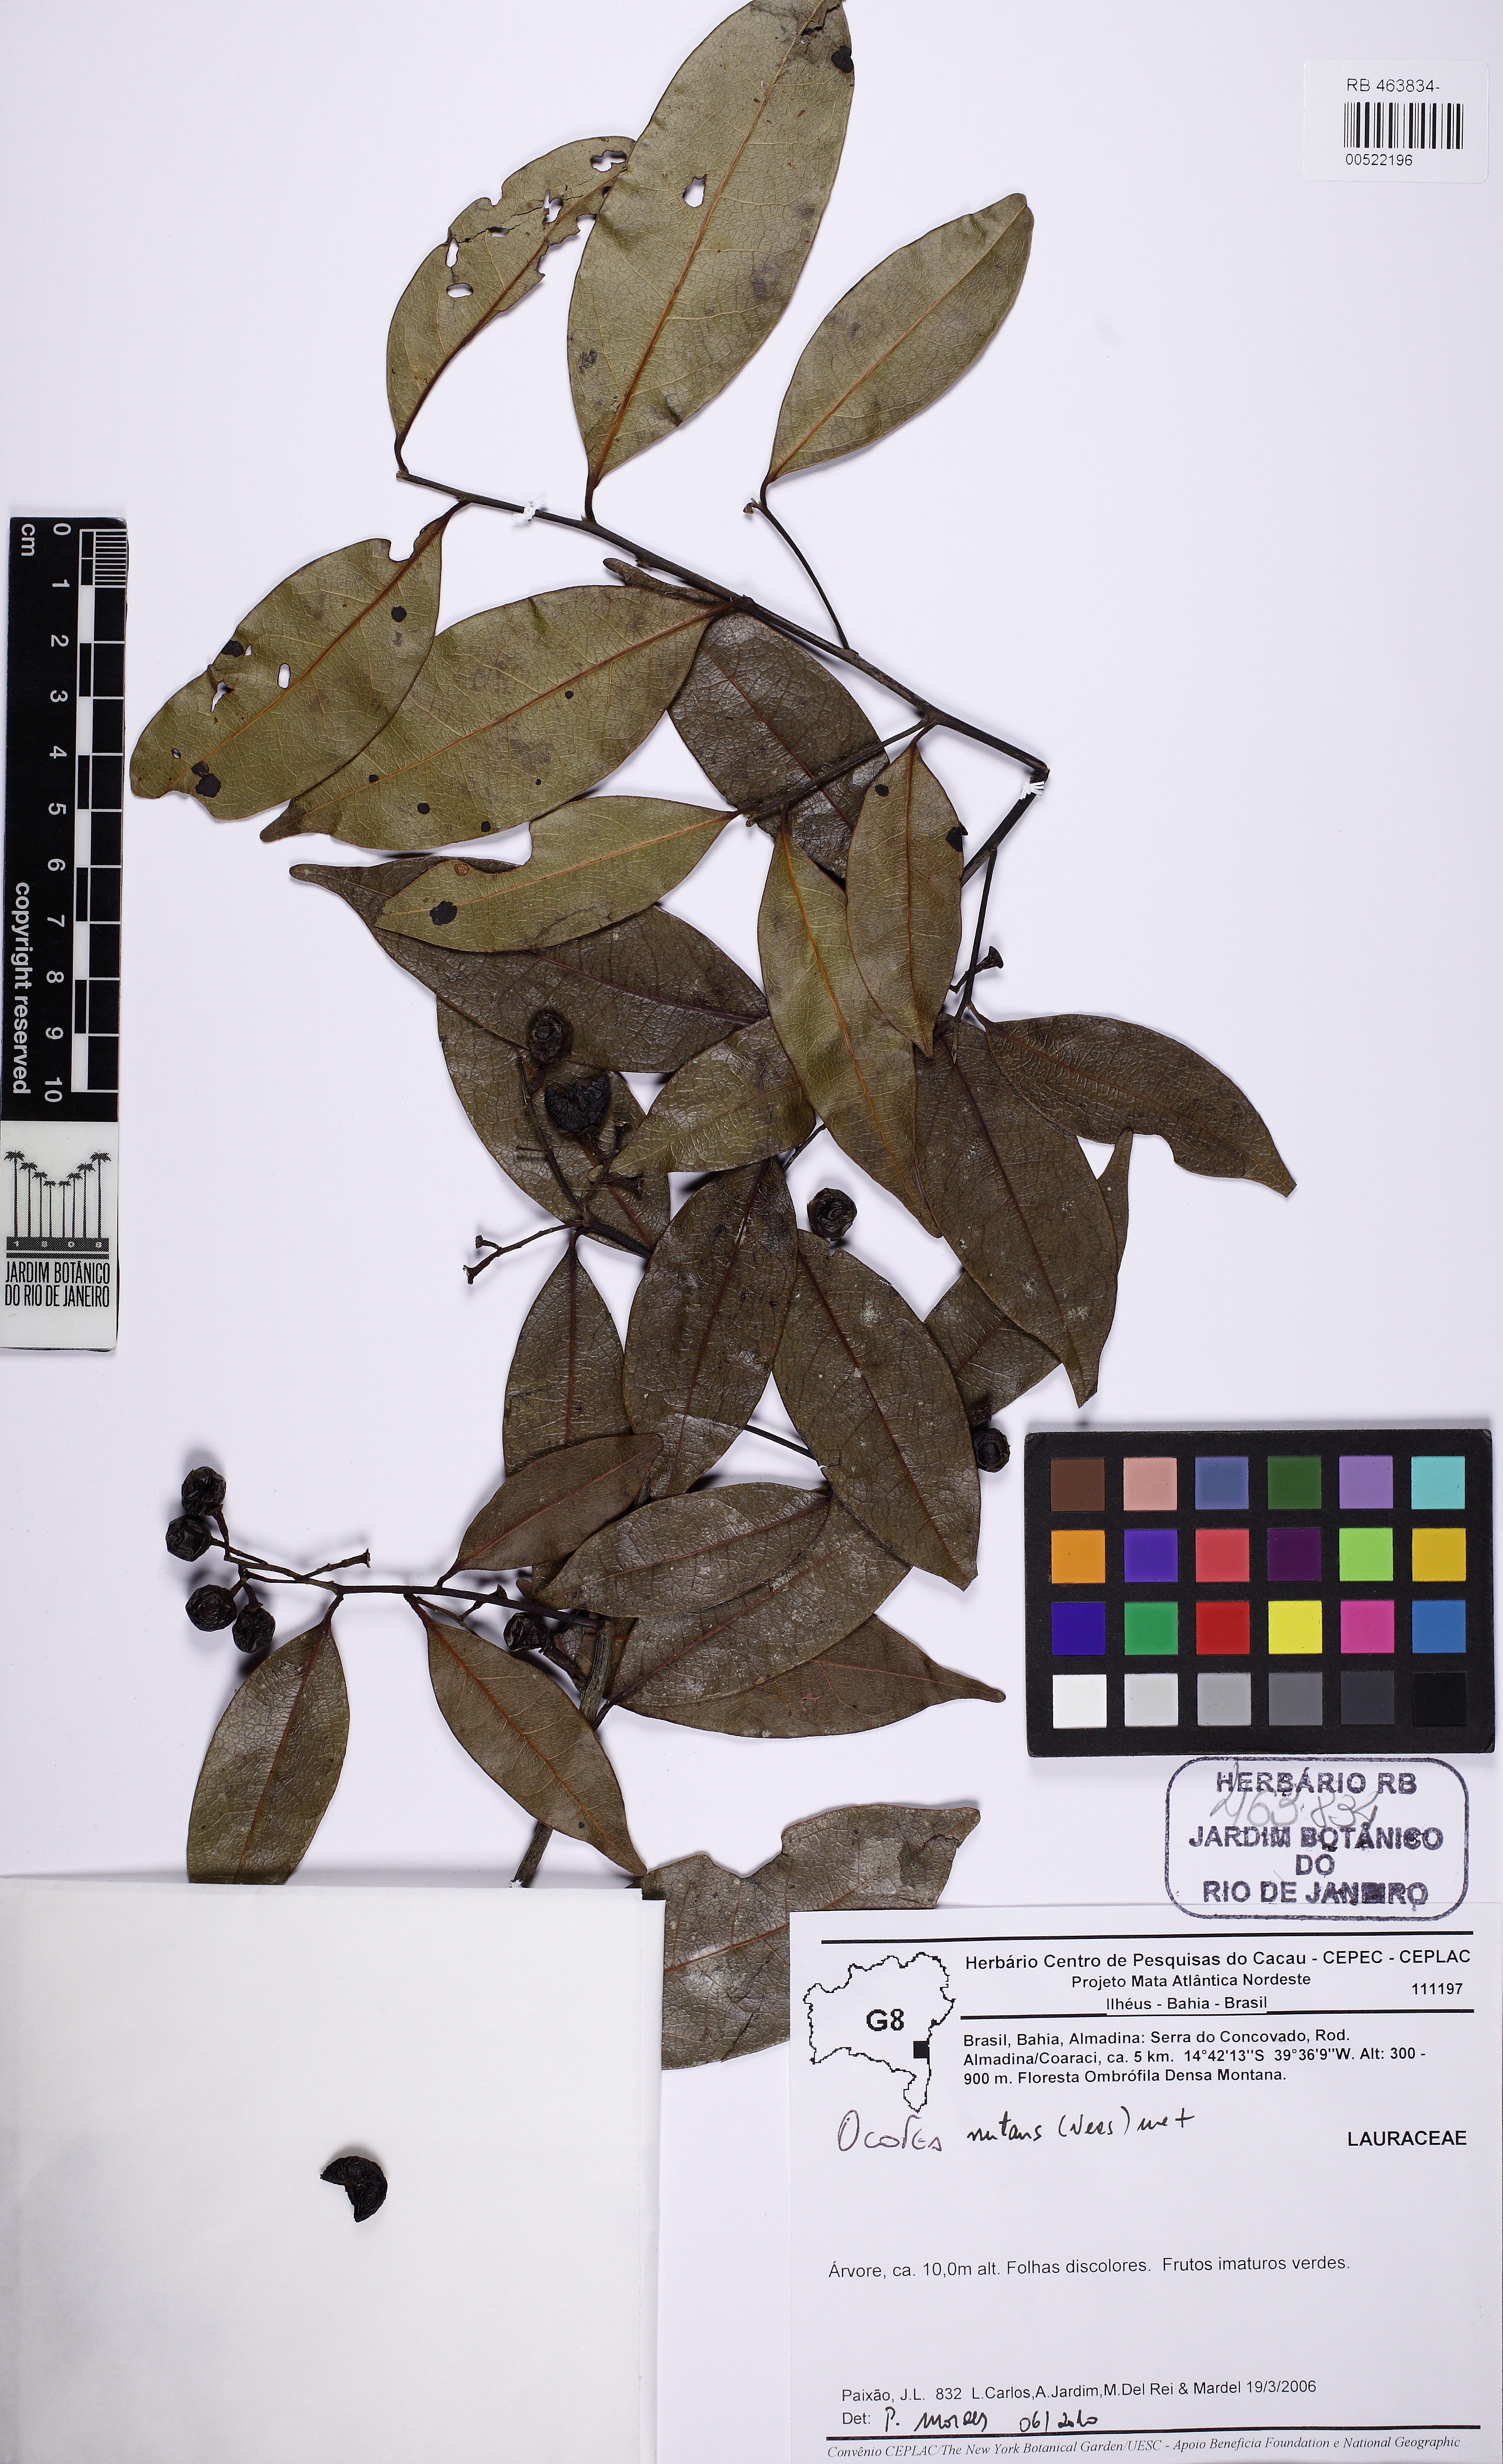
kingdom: Plantae
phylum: Tracheophyta
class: Magnoliopsida
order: Laurales
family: Lauraceae
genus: Mespilodaphne
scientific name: Mespilodaphne nutans
